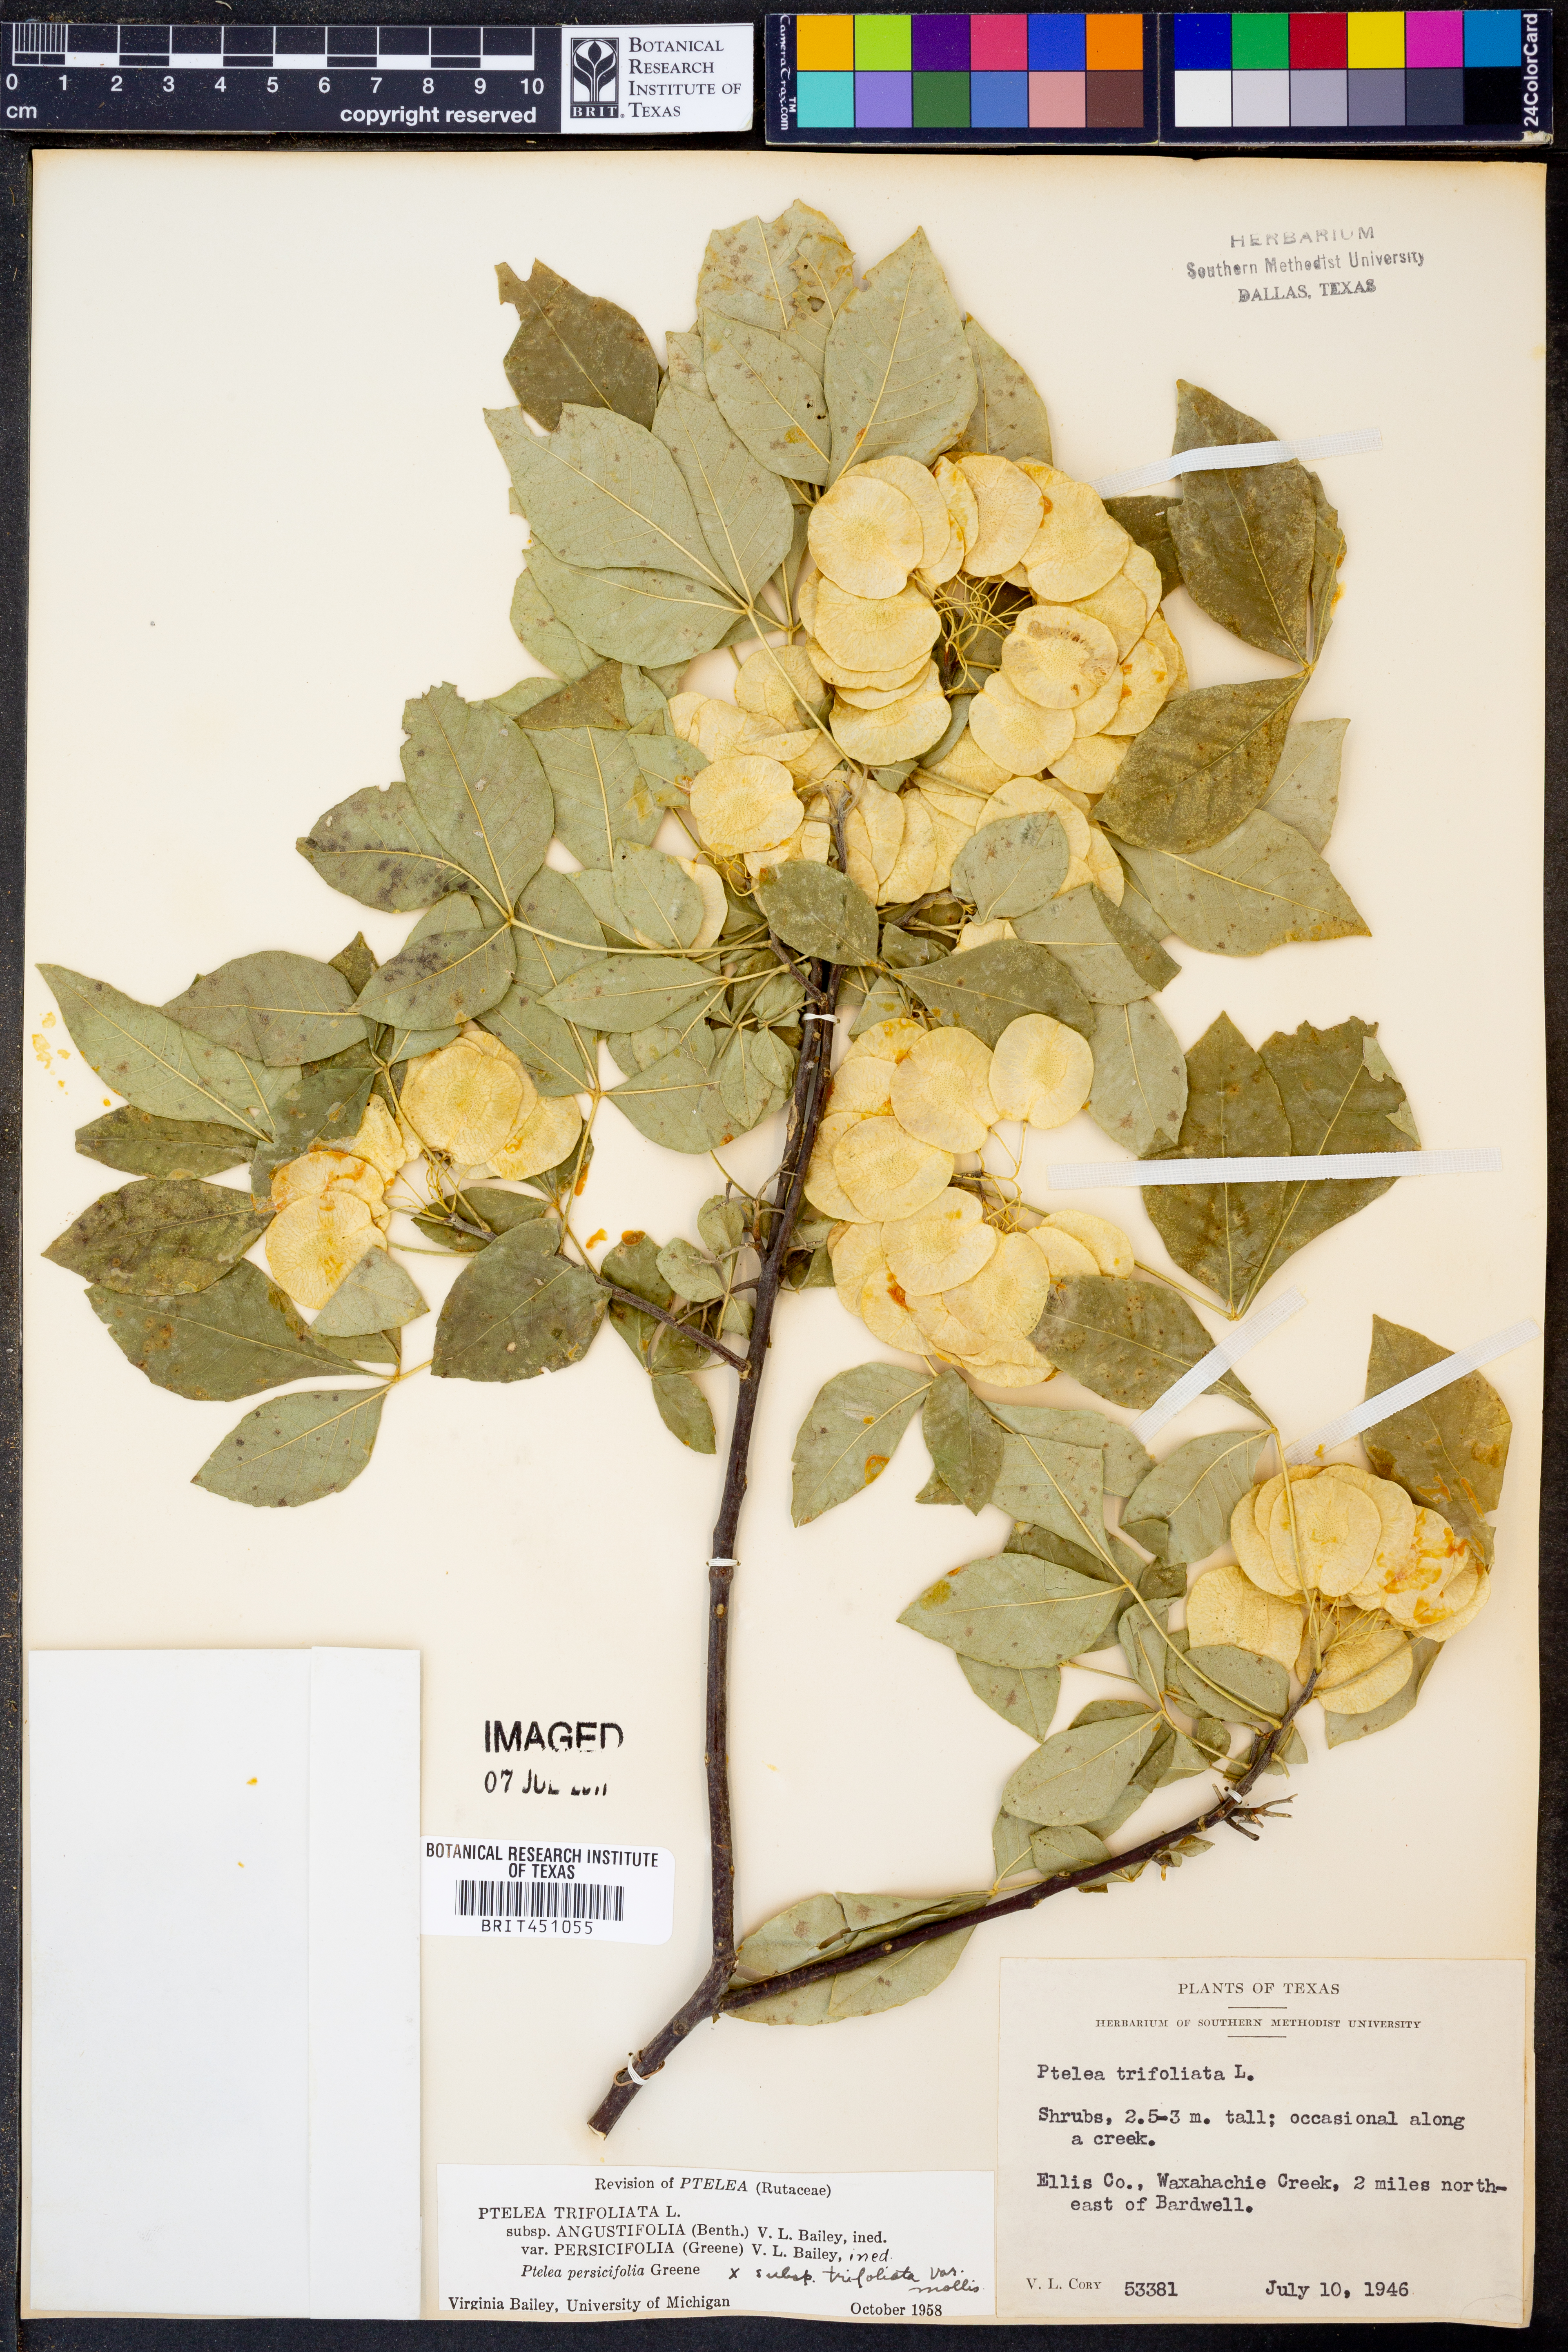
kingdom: Plantae
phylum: Tracheophyta
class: Magnoliopsida
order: Sapindales
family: Rutaceae
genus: Ptelea
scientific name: Ptelea trifoliata
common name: Common hop-tree
